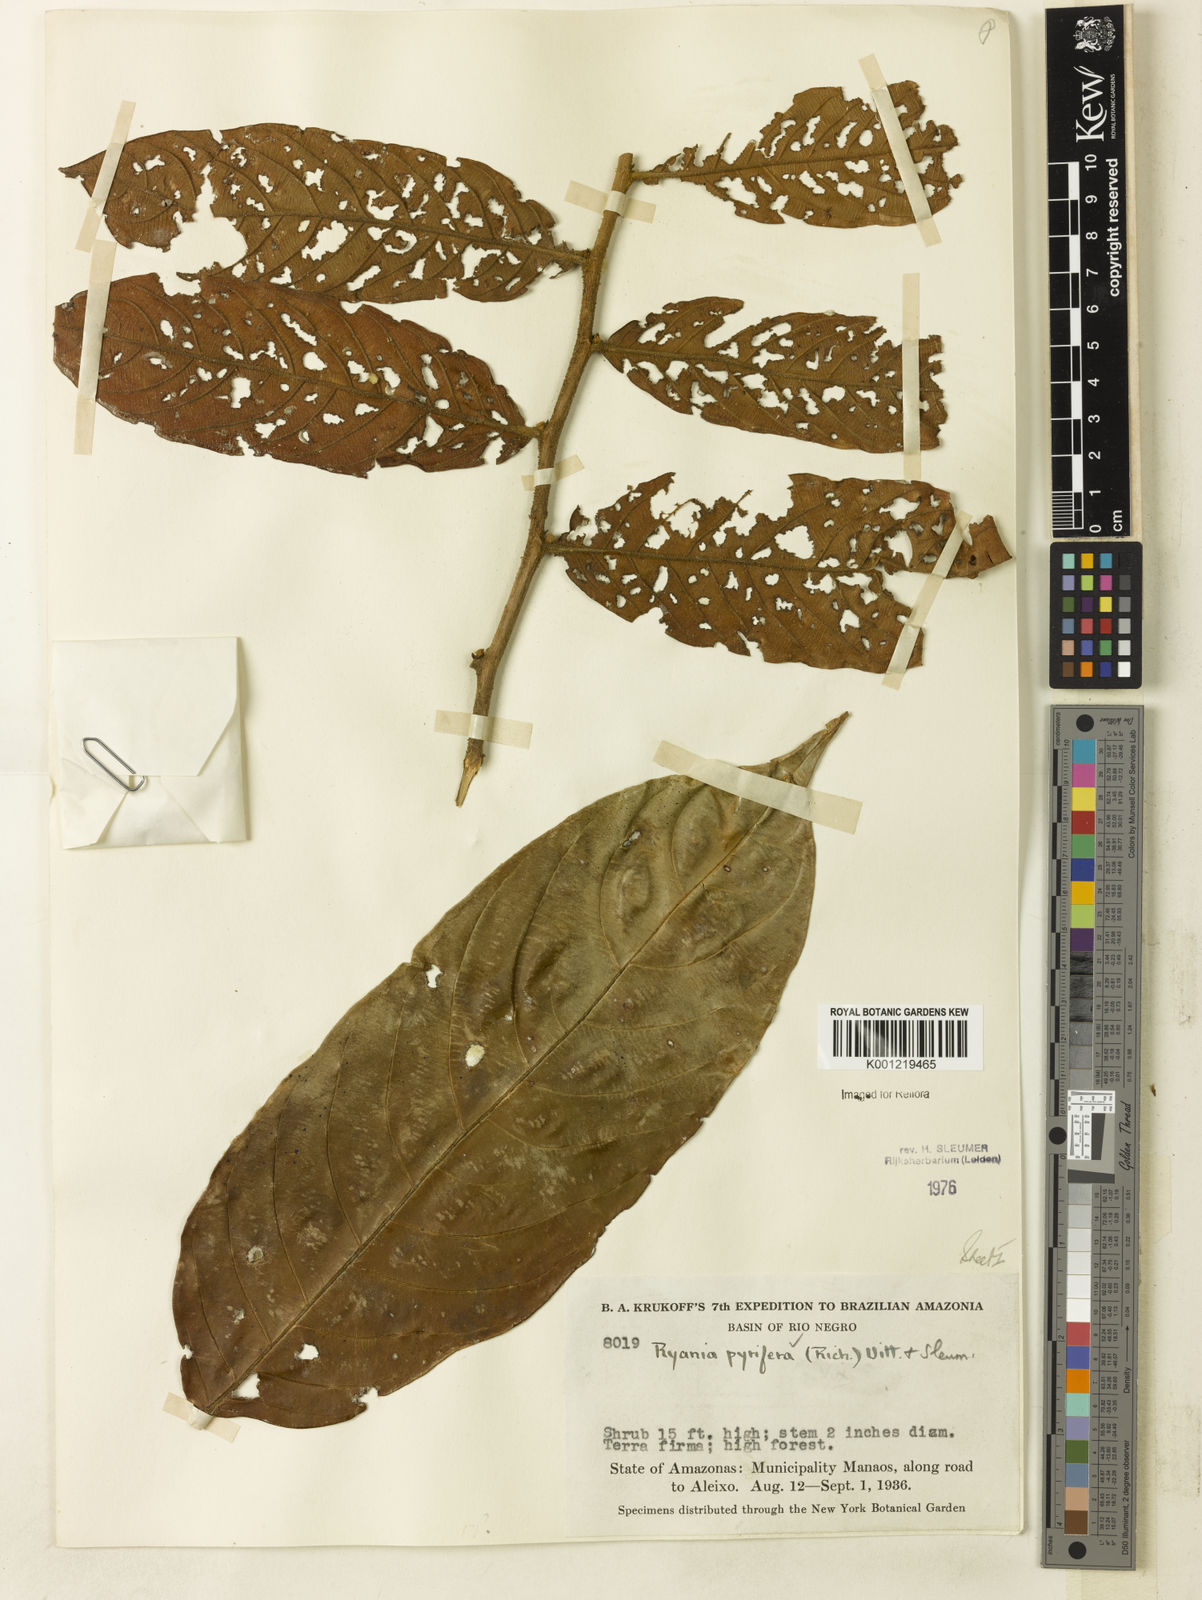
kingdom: Plantae
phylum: Tracheophyta
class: Magnoliopsida
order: Malpighiales
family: Salicaceae
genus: Ryania
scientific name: Ryania pyrifera
